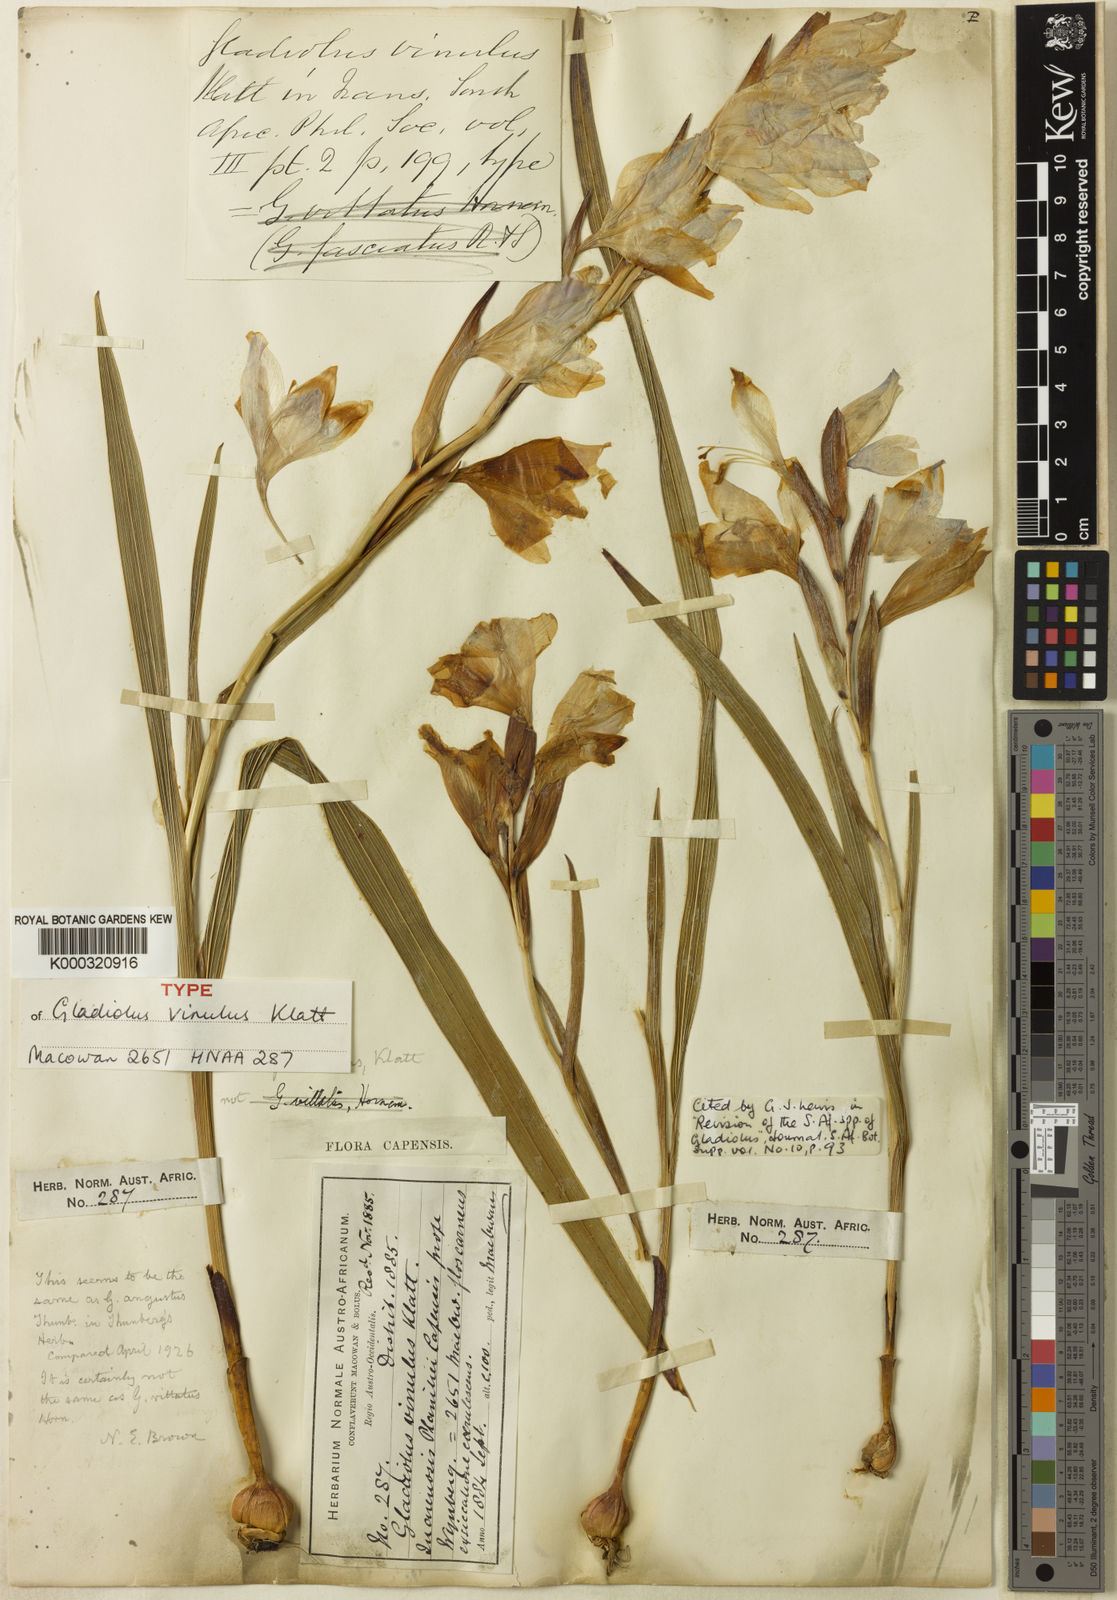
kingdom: Plantae
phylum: Tracheophyta
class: Liliopsida
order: Asparagales
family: Iridaceae
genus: Gladiolus
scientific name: Gladiolus carneus
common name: Painted-lady
